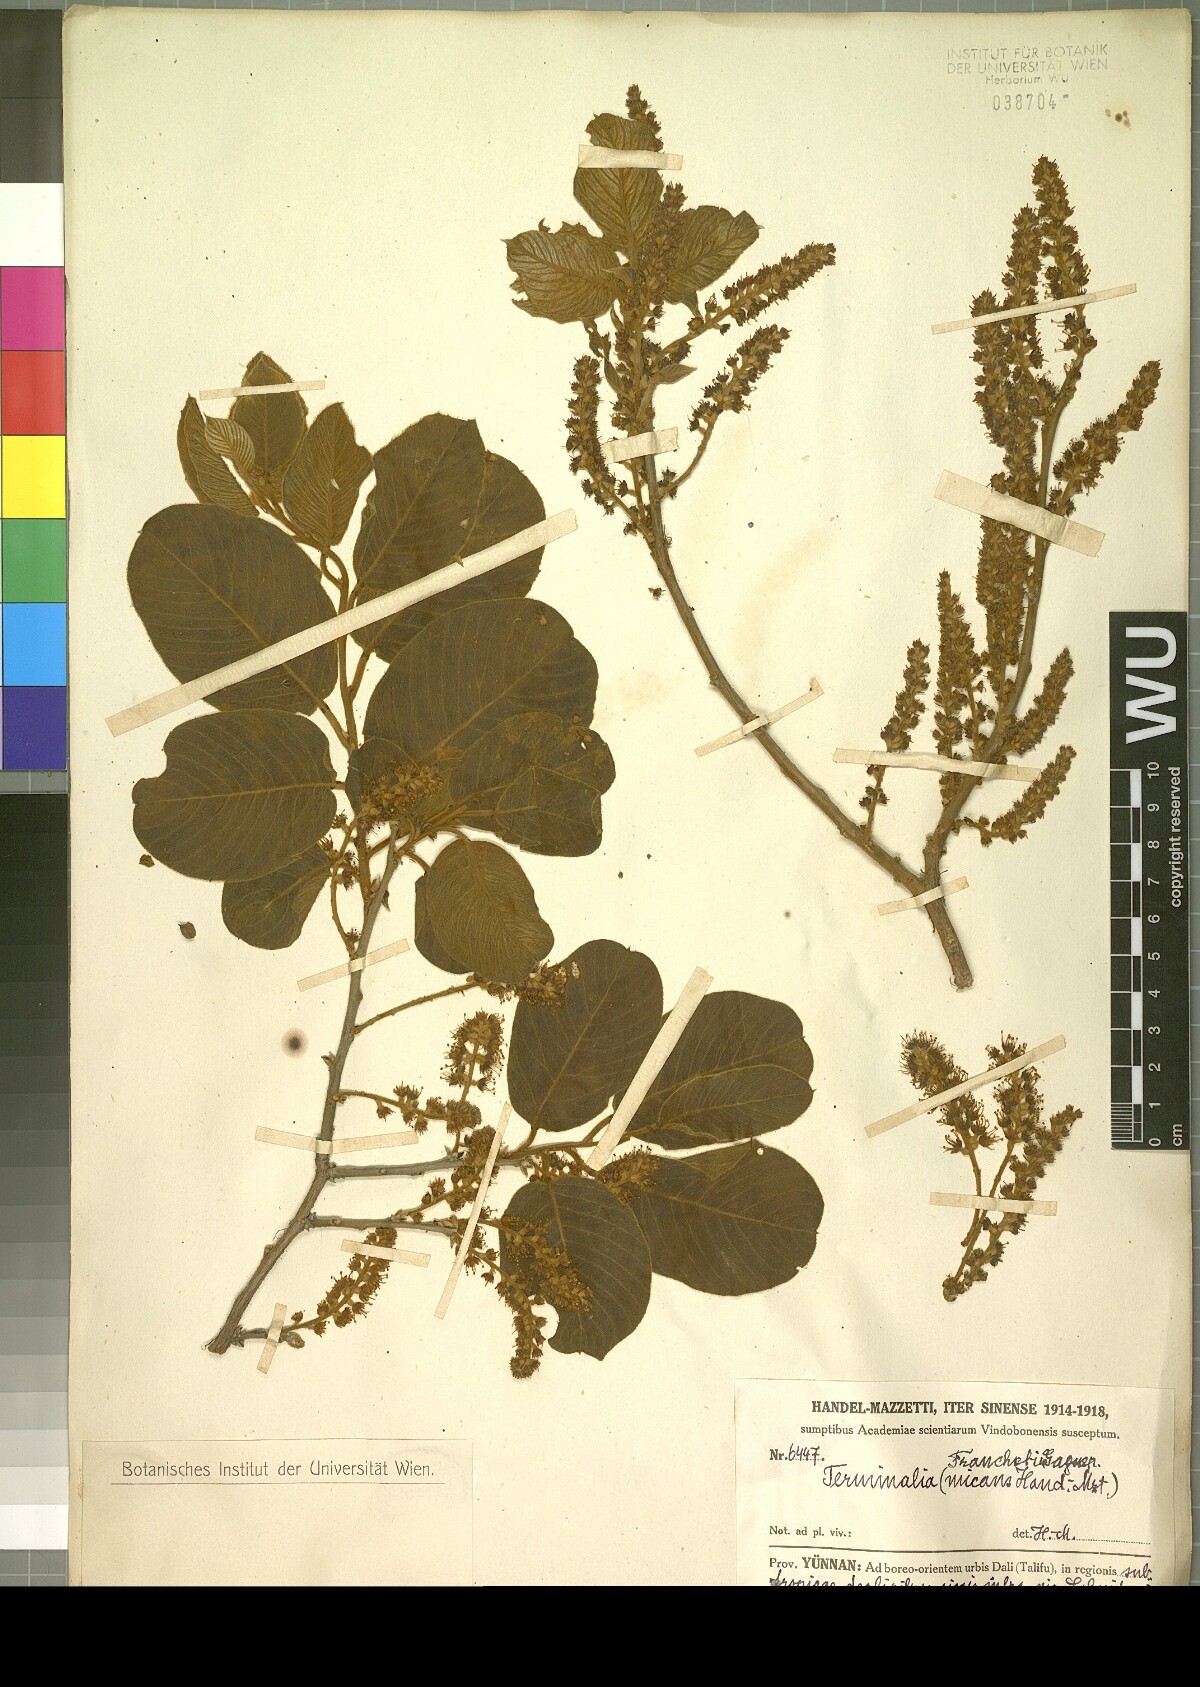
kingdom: Plantae
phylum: Tracheophyta
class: Magnoliopsida
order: Myrtales
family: Combretaceae
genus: Terminalia
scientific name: Terminalia franchetii
